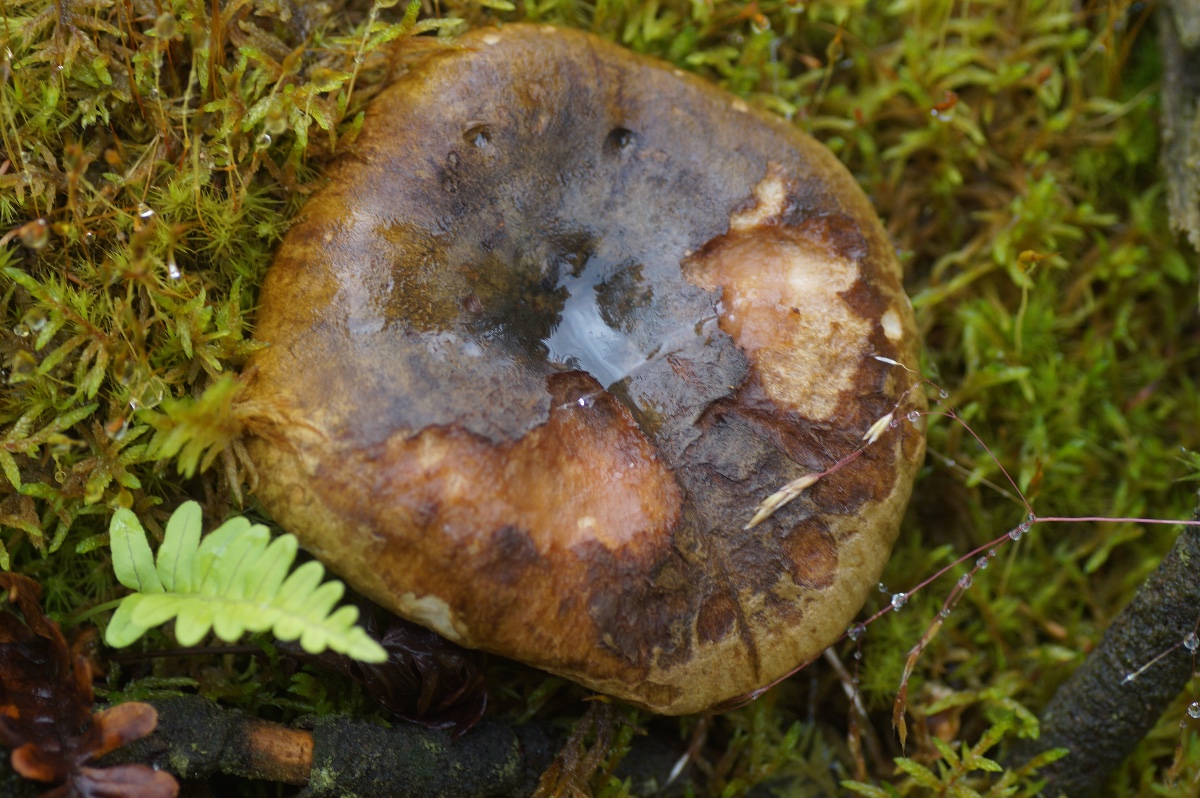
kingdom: Fungi
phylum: Basidiomycota
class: Agaricomycetes
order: Russulales
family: Russulaceae
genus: Lactarius
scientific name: Lactarius necator
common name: manddraber-mælkehat
